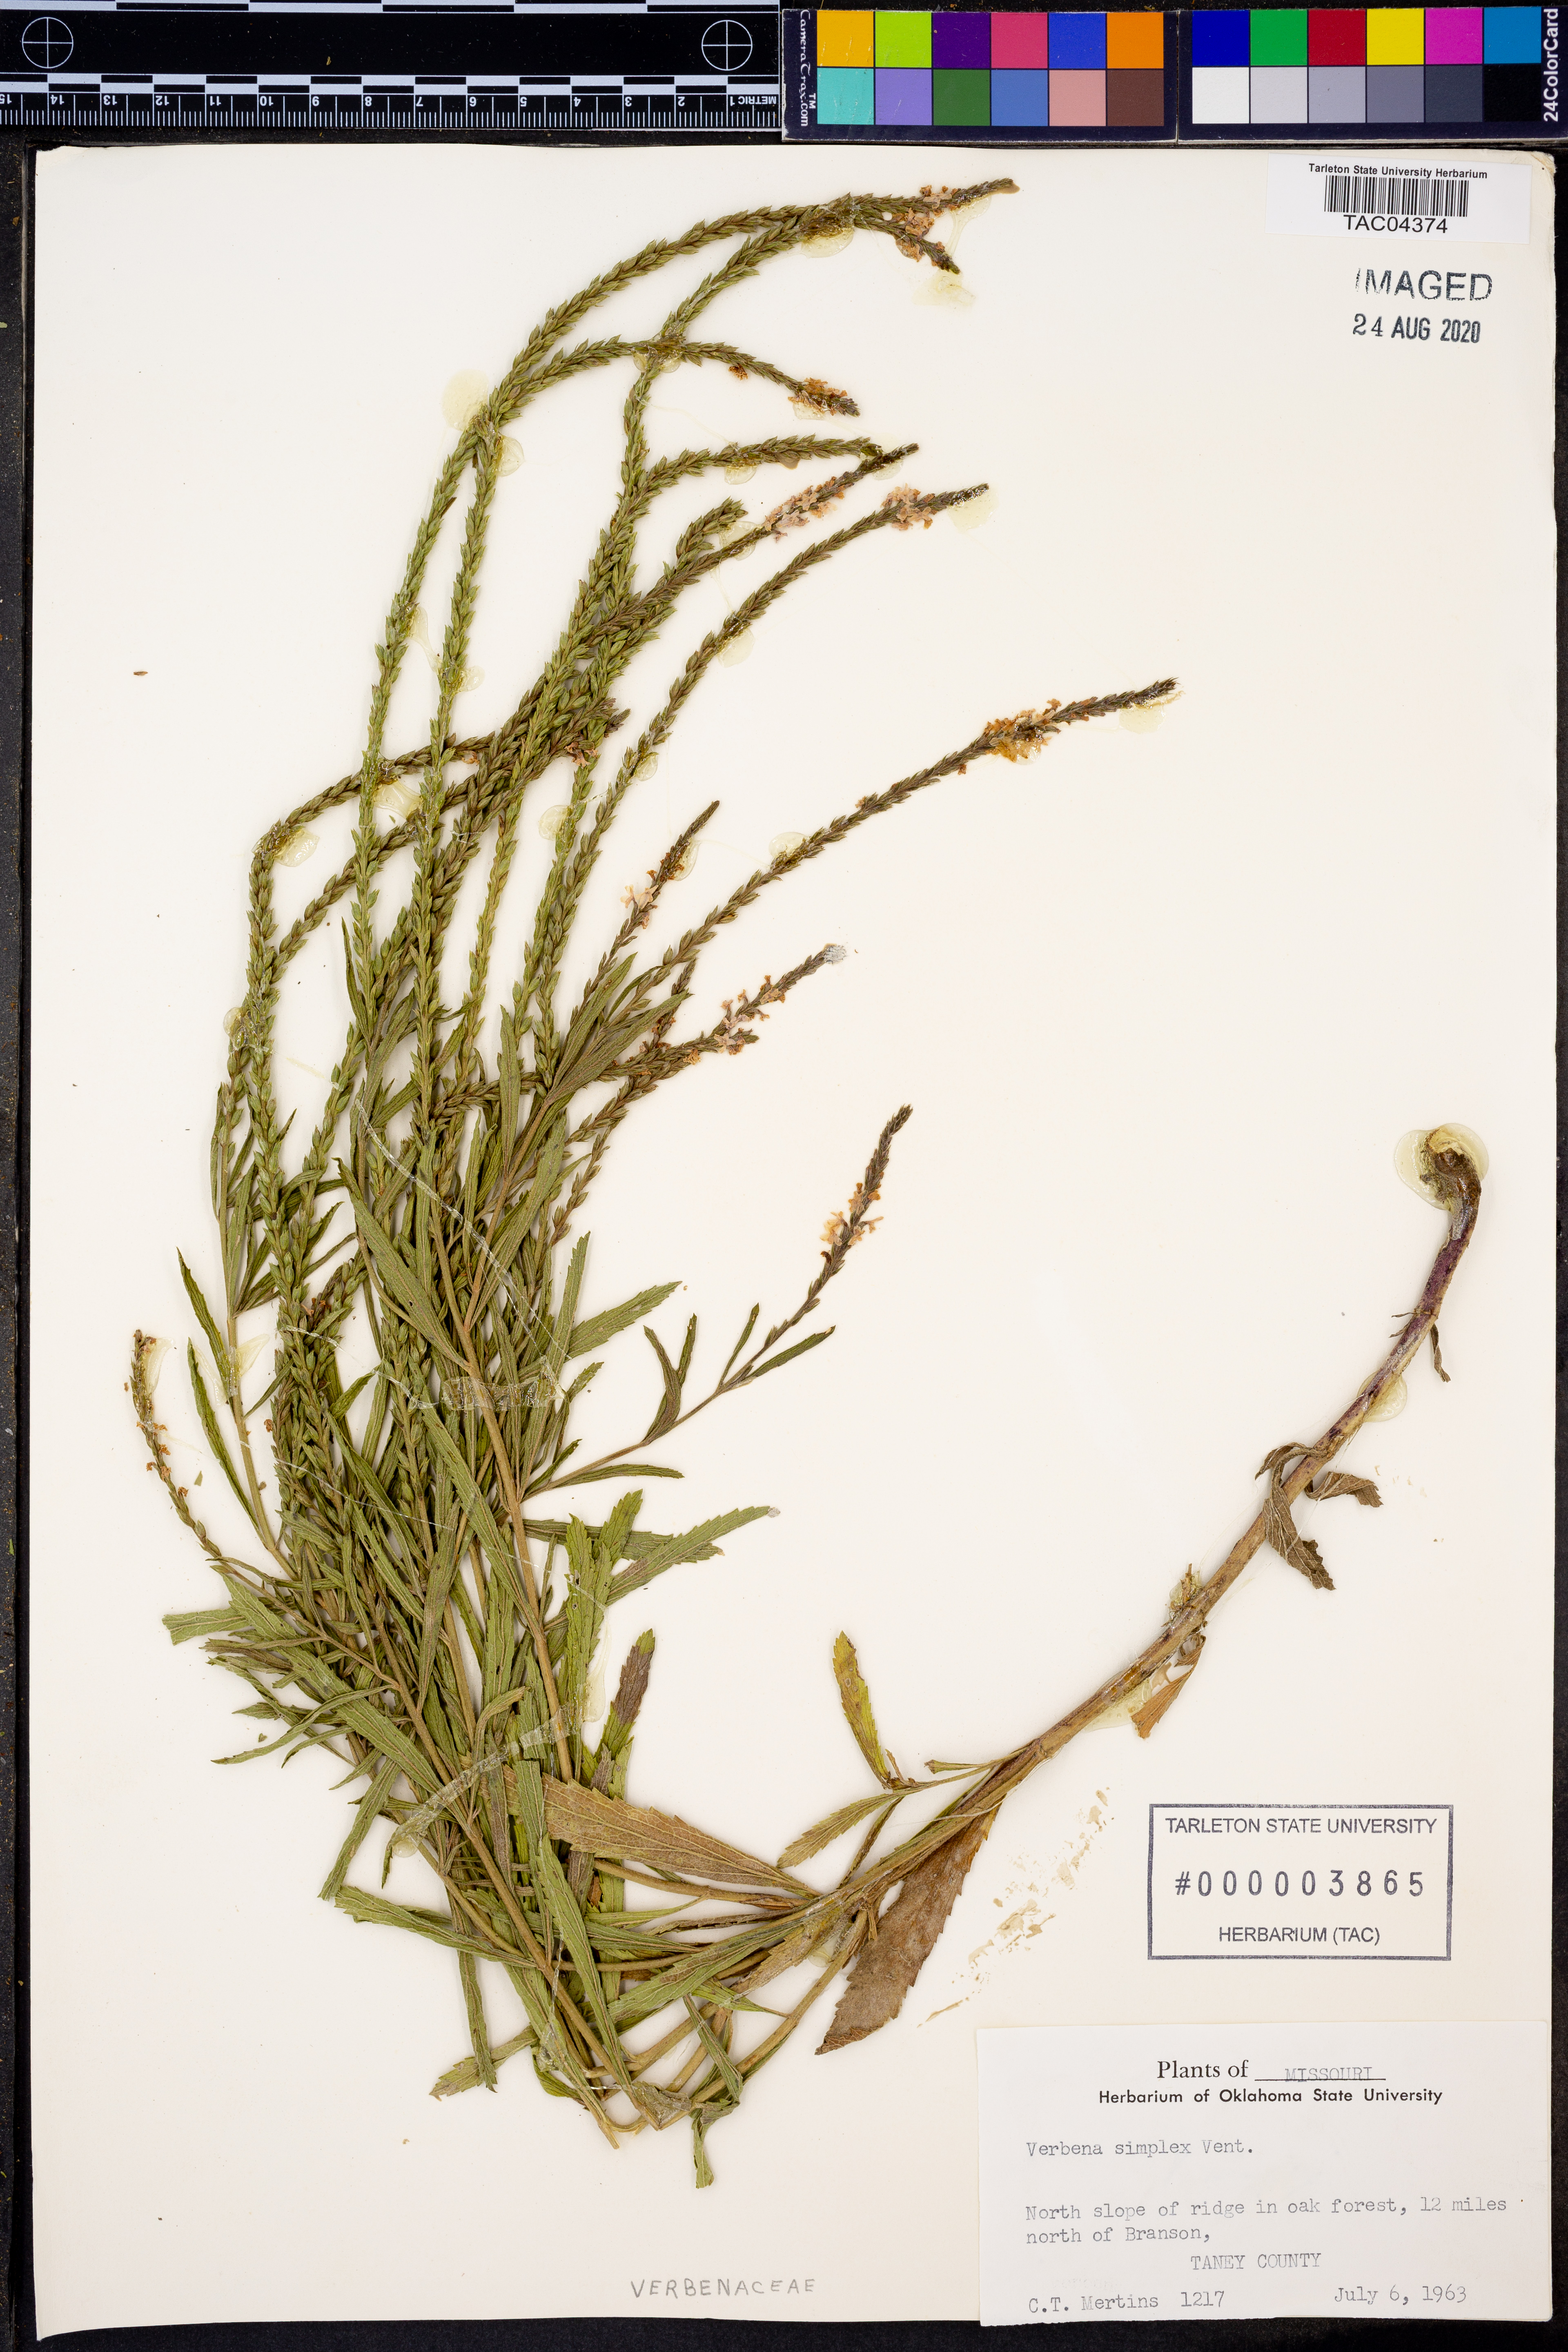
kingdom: Plantae
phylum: Tracheophyta
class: Magnoliopsida
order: Lamiales
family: Verbenaceae
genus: Verbena
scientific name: Verbena simplex
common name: Narrow-leaf vervain
